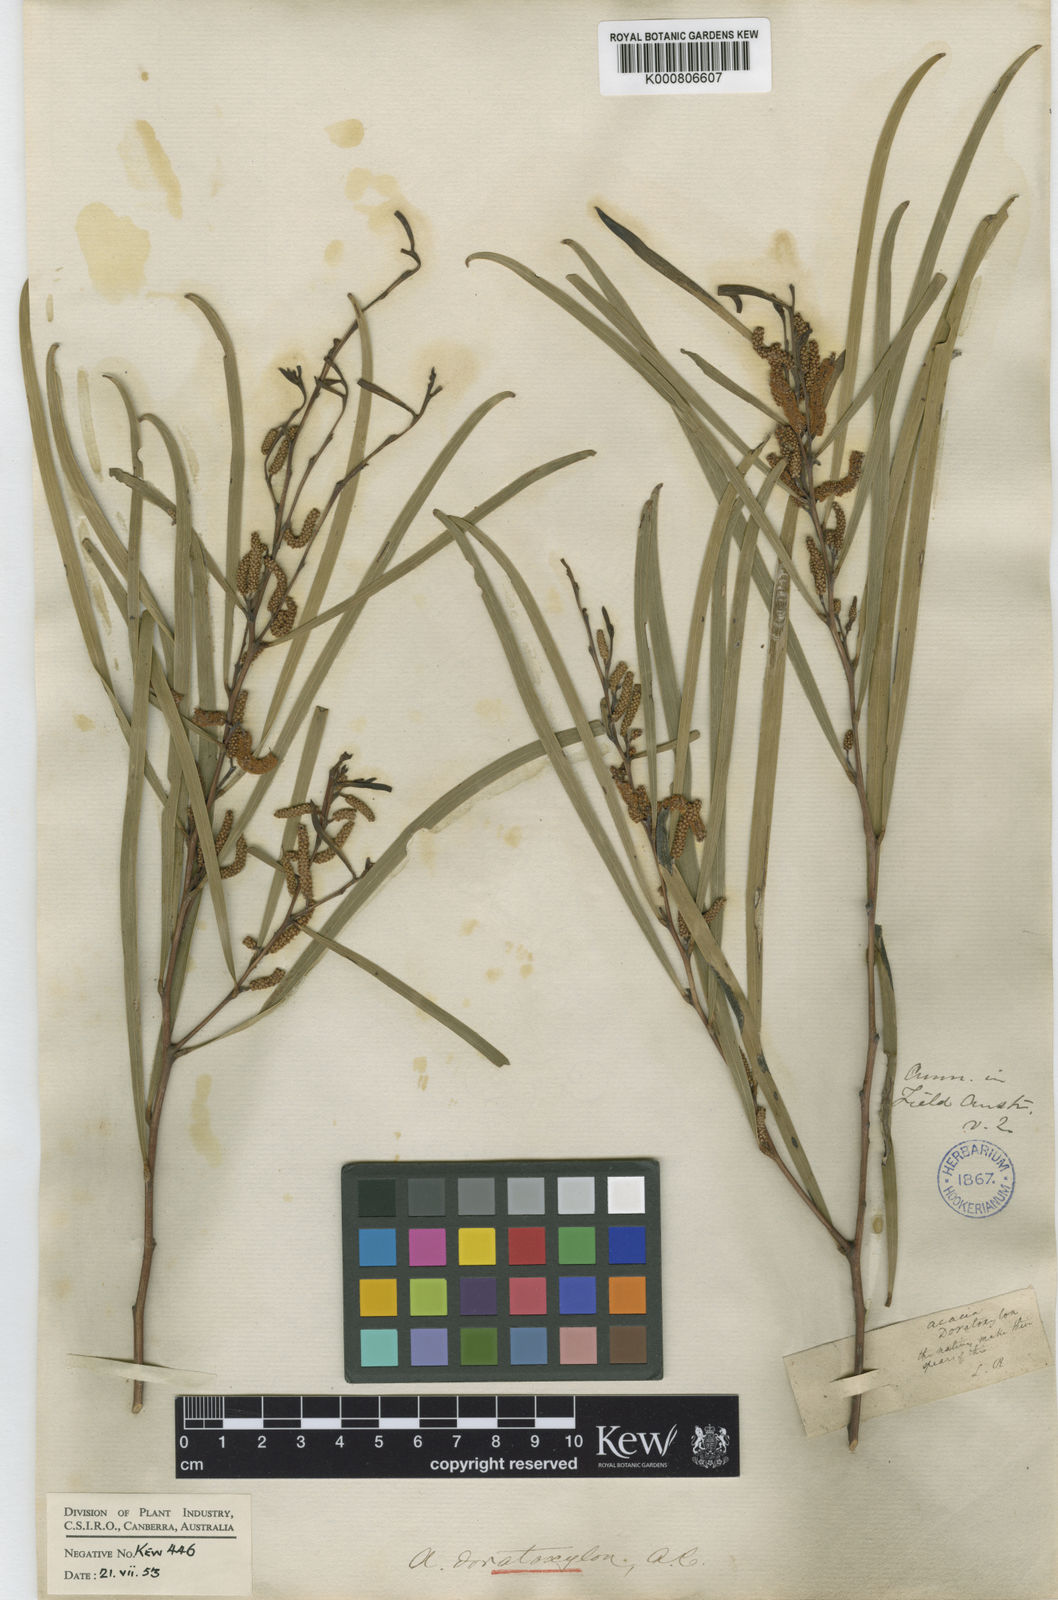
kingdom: Plantae
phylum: Tracheophyta
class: Magnoliopsida
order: Fabales
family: Fabaceae
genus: Acacia
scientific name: Acacia doratoxylon
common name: Lancewood
